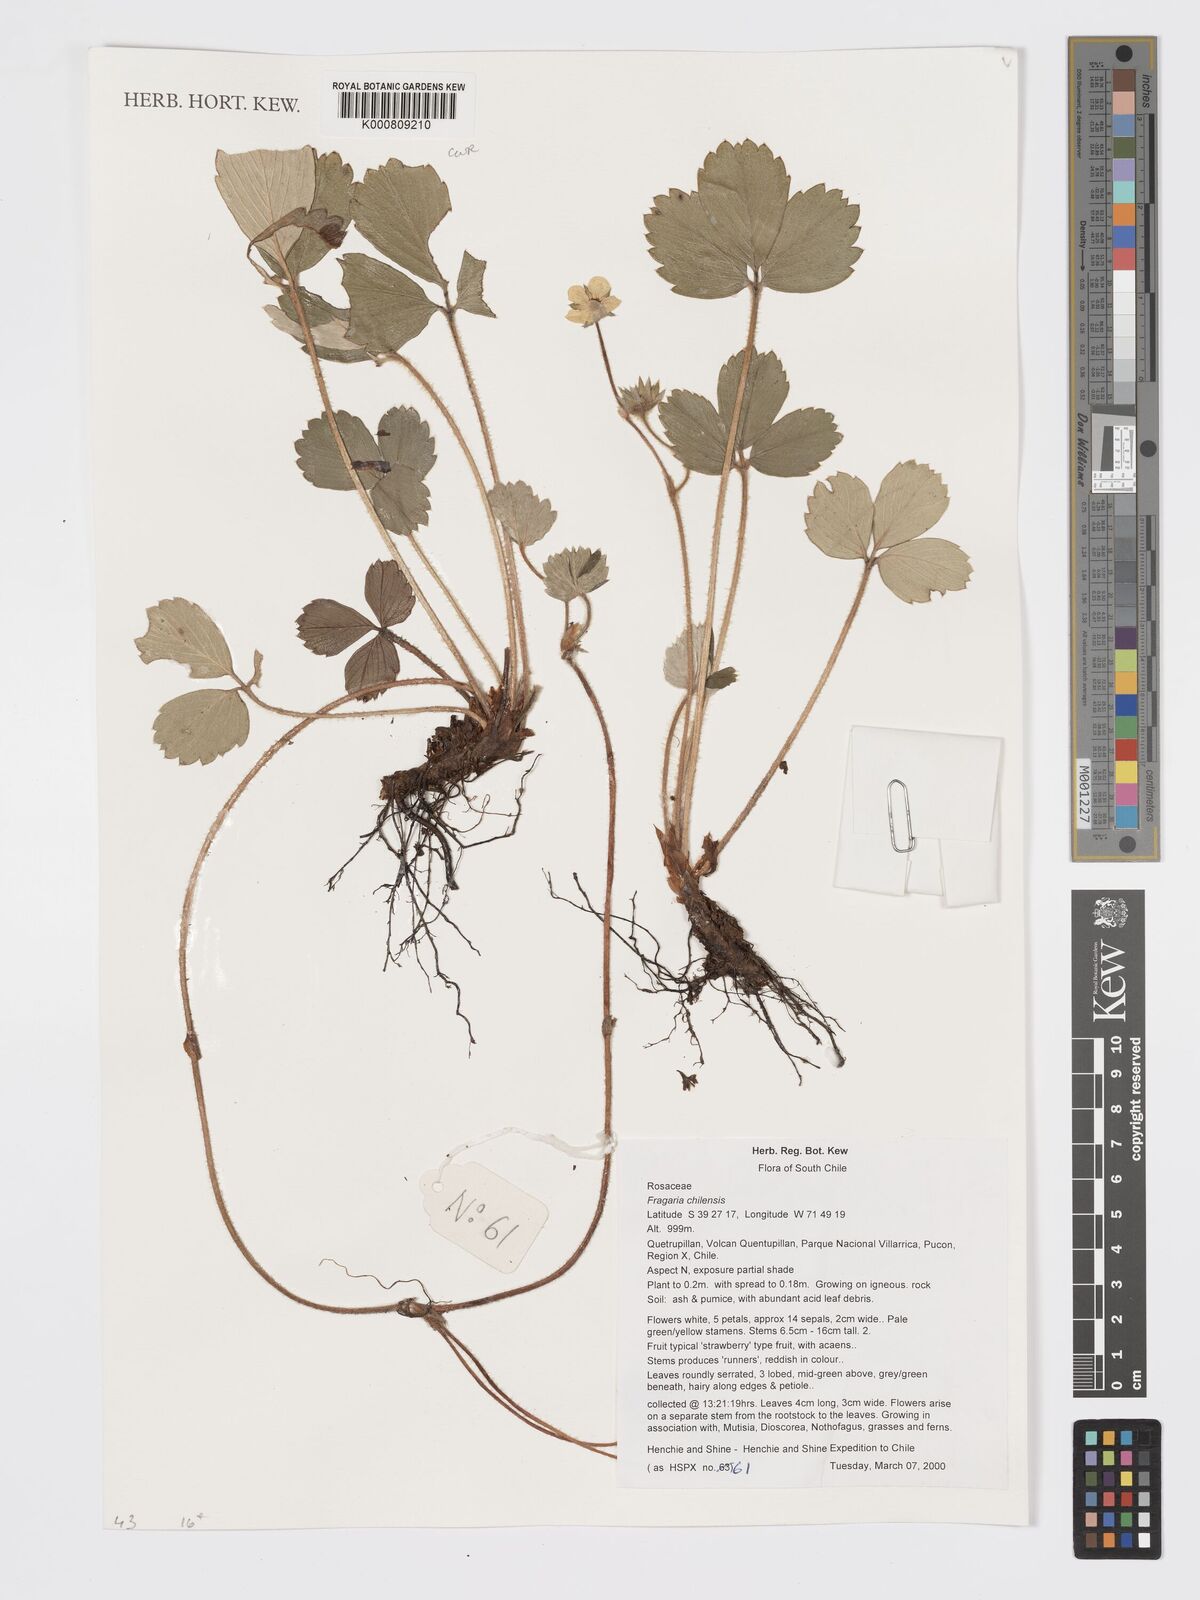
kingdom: Plantae
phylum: Tracheophyta
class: Magnoliopsida
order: Rosales
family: Rosaceae
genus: Fragaria
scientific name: Fragaria
